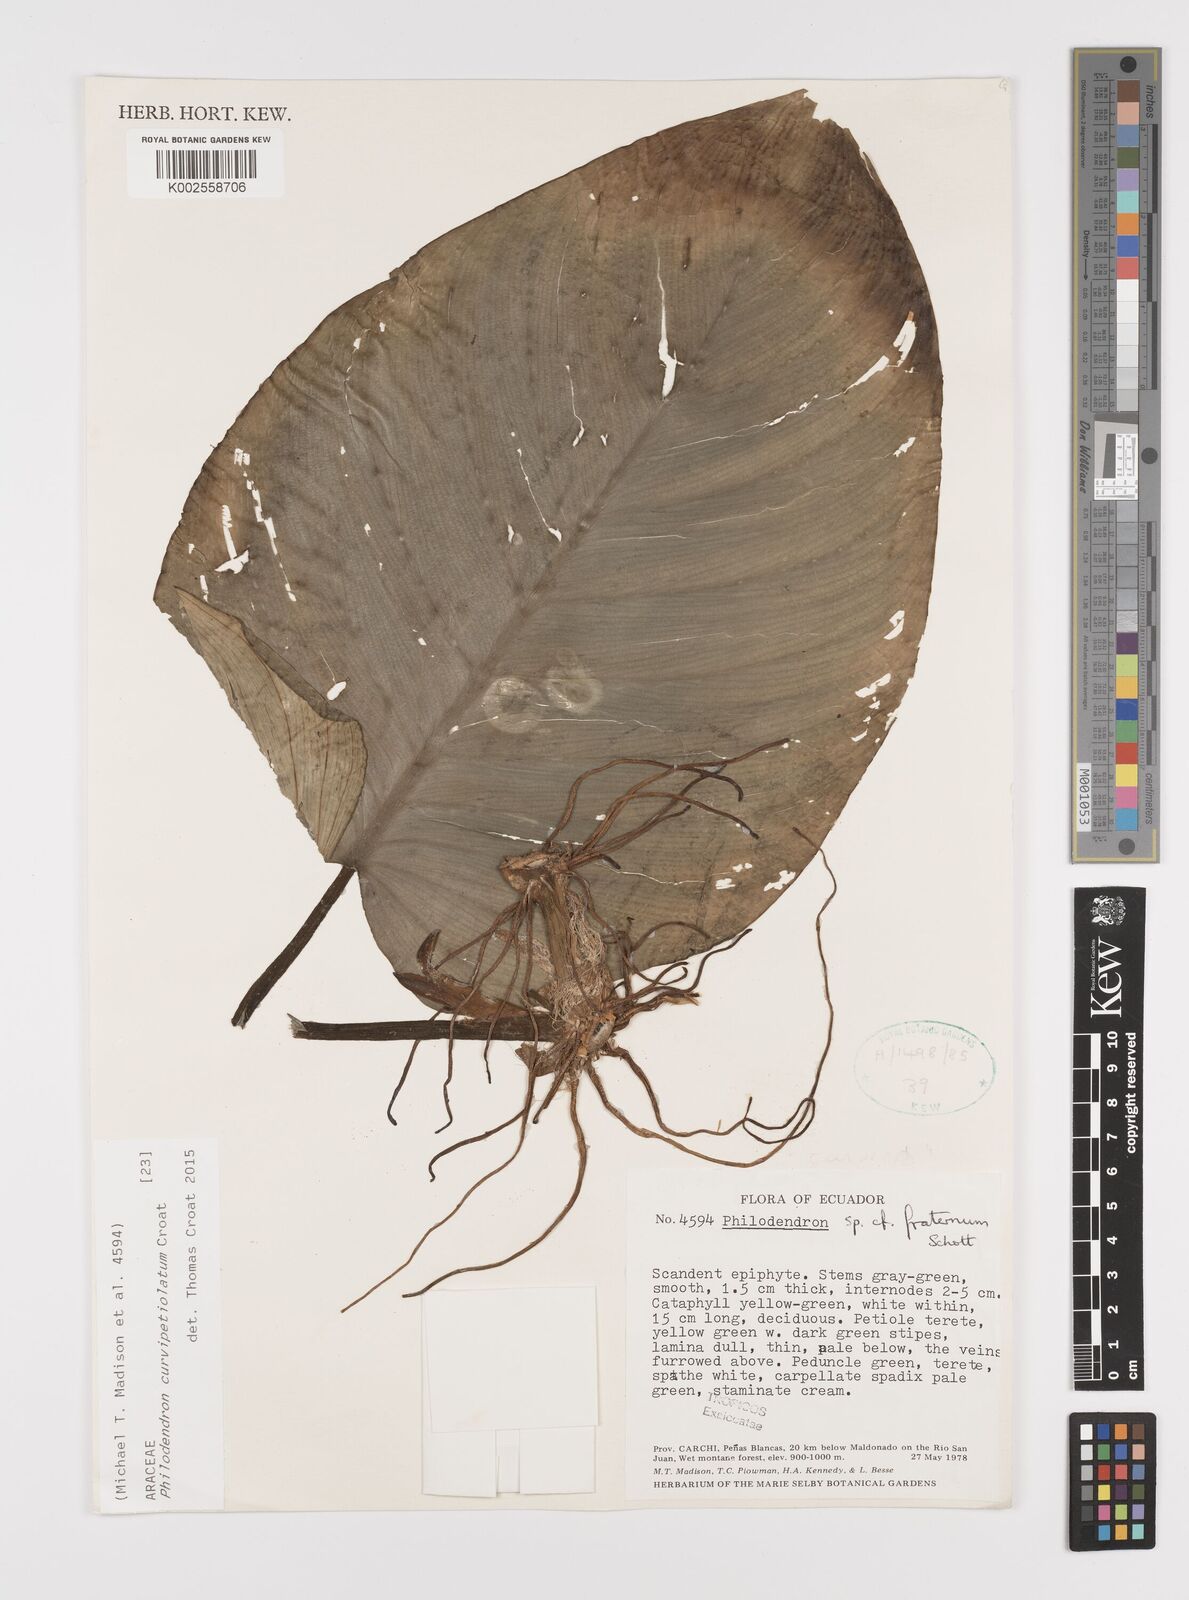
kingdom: Plantae
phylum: Tracheophyta
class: Liliopsida
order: Alismatales
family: Araceae
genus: Philodendron
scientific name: Philodendron curvipetiolatum
